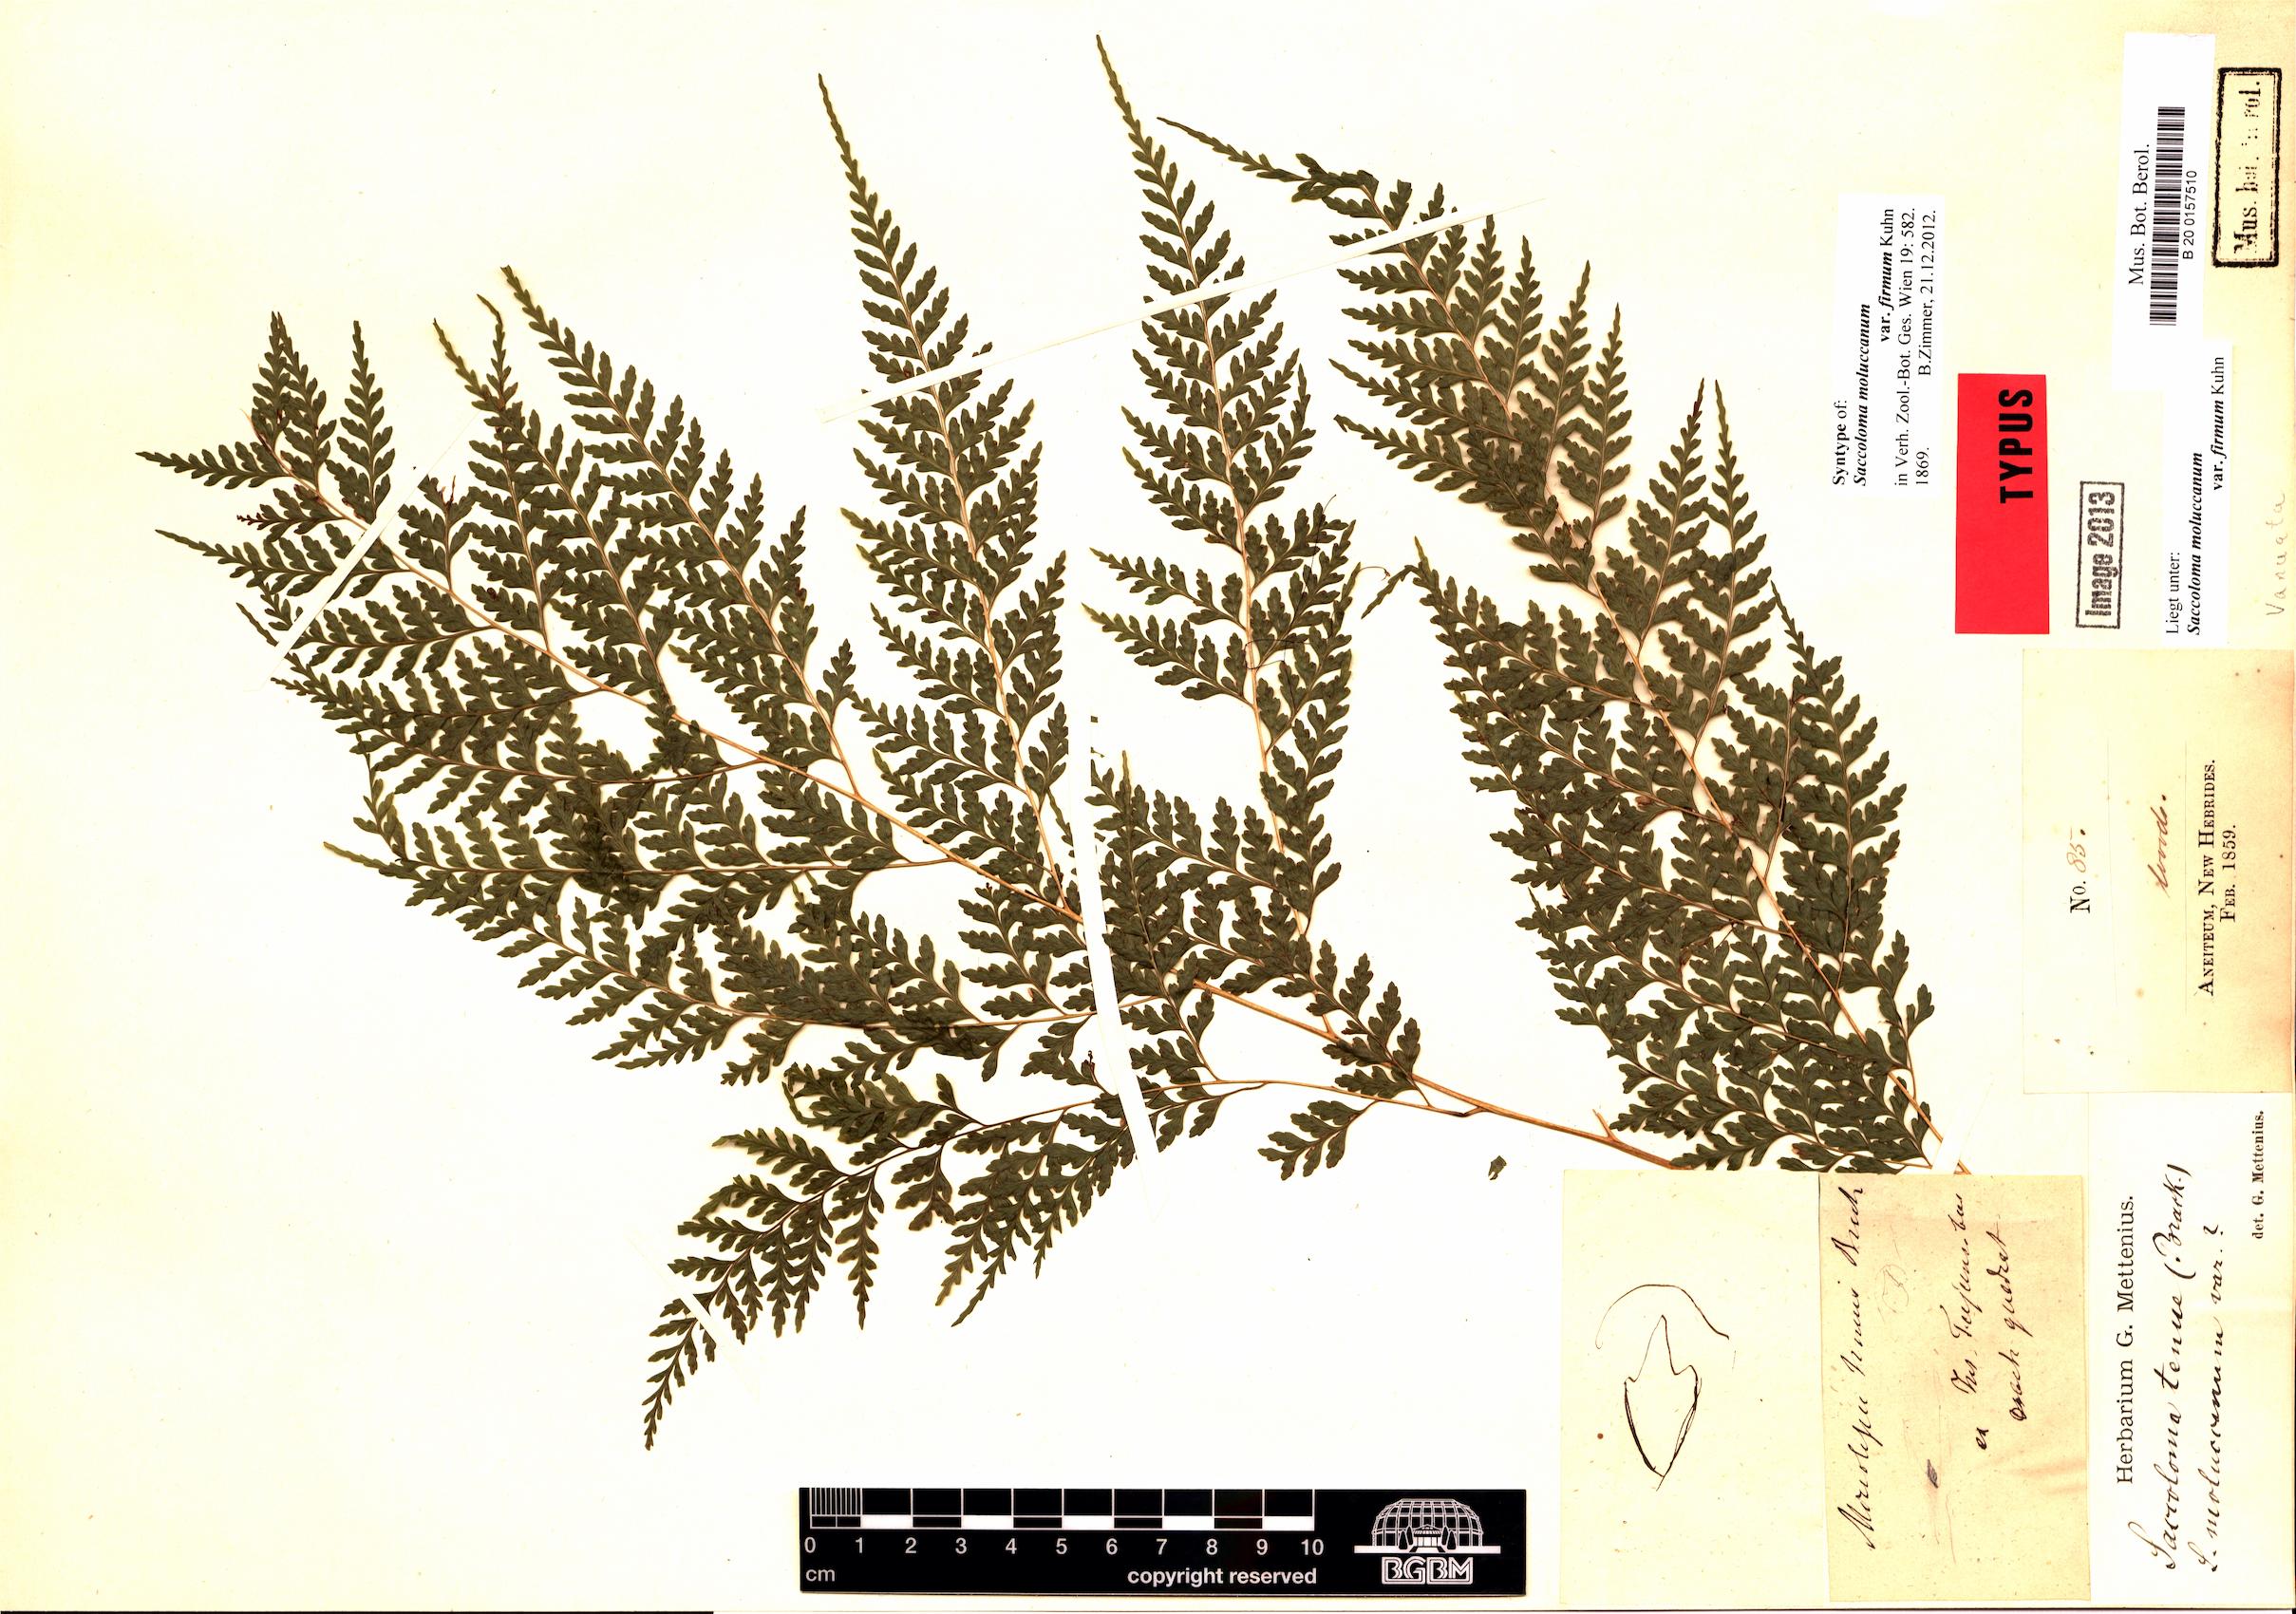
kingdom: Plantae
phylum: Tracheophyta
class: Polypodiopsida
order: Polypodiales
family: Saccolomataceae
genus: Orthiopteris
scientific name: Orthiopteris campylura
